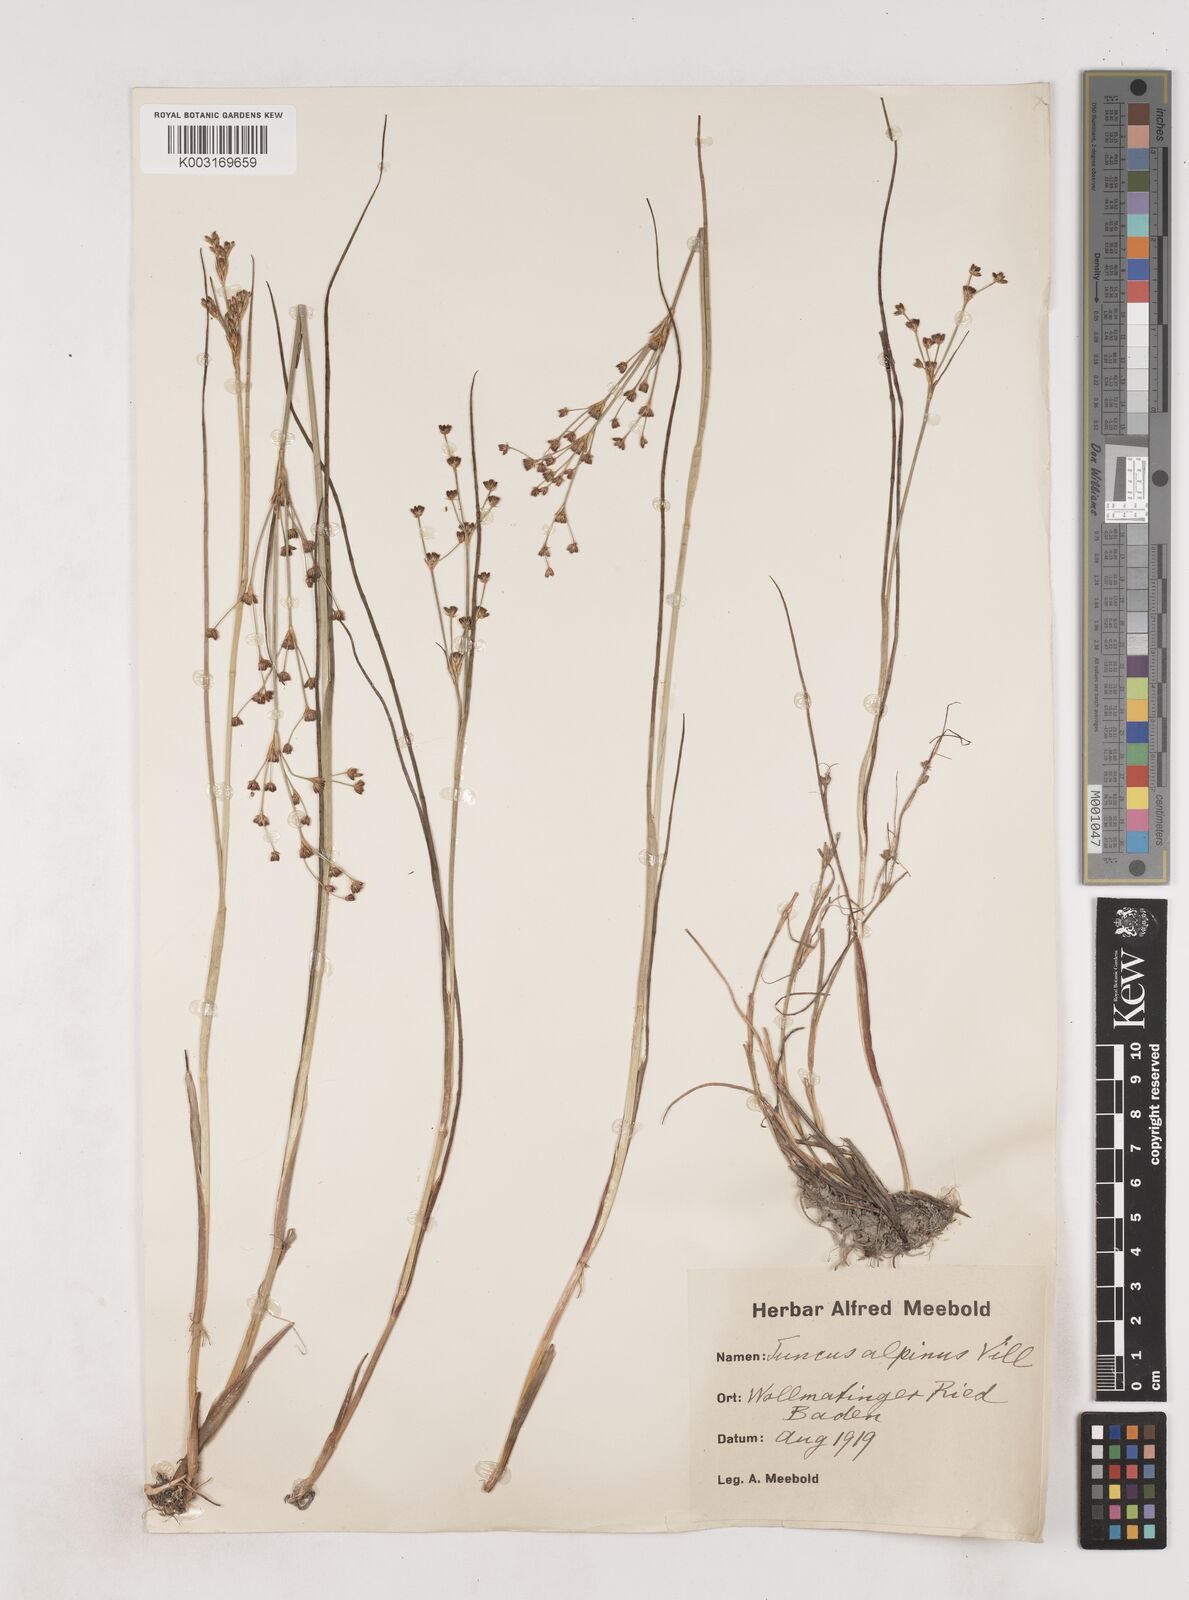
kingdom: Plantae
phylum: Tracheophyta
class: Liliopsida
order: Poales
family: Juncaceae
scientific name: Juncaceae
